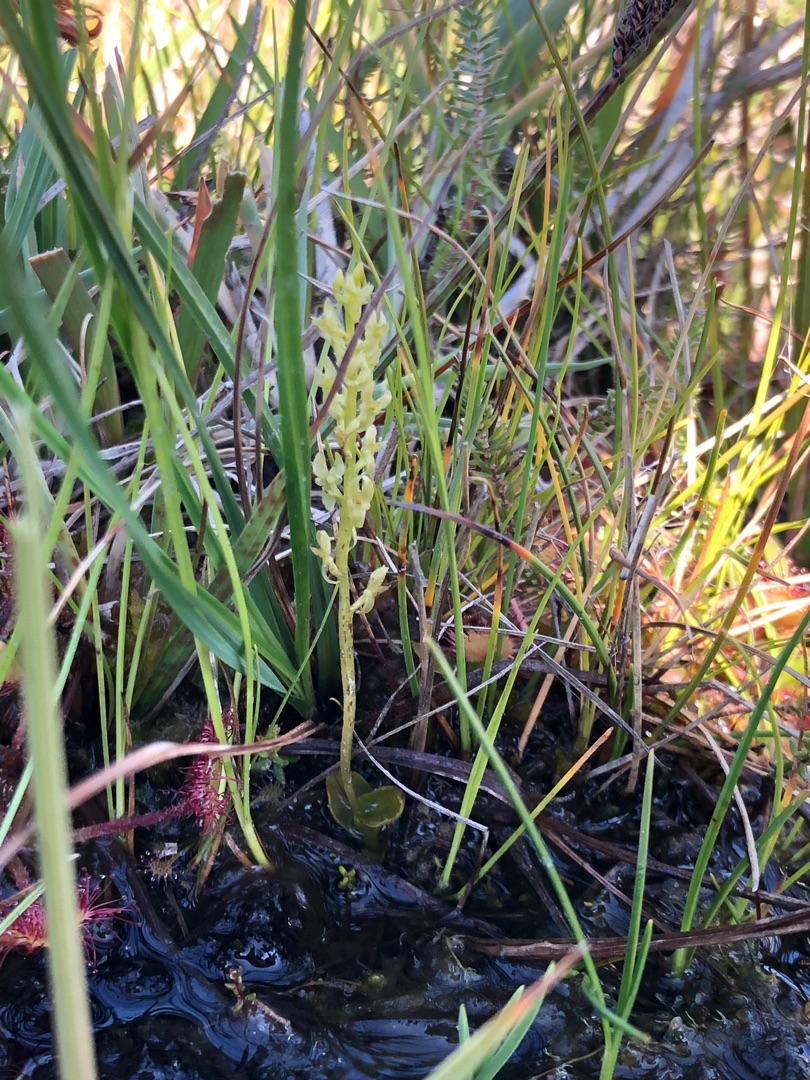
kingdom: Plantae
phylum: Tracheophyta
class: Liliopsida
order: Asparagales
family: Orchidaceae
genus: Hammarbya
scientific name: Hammarbya paludosa
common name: Hjertelæbe
